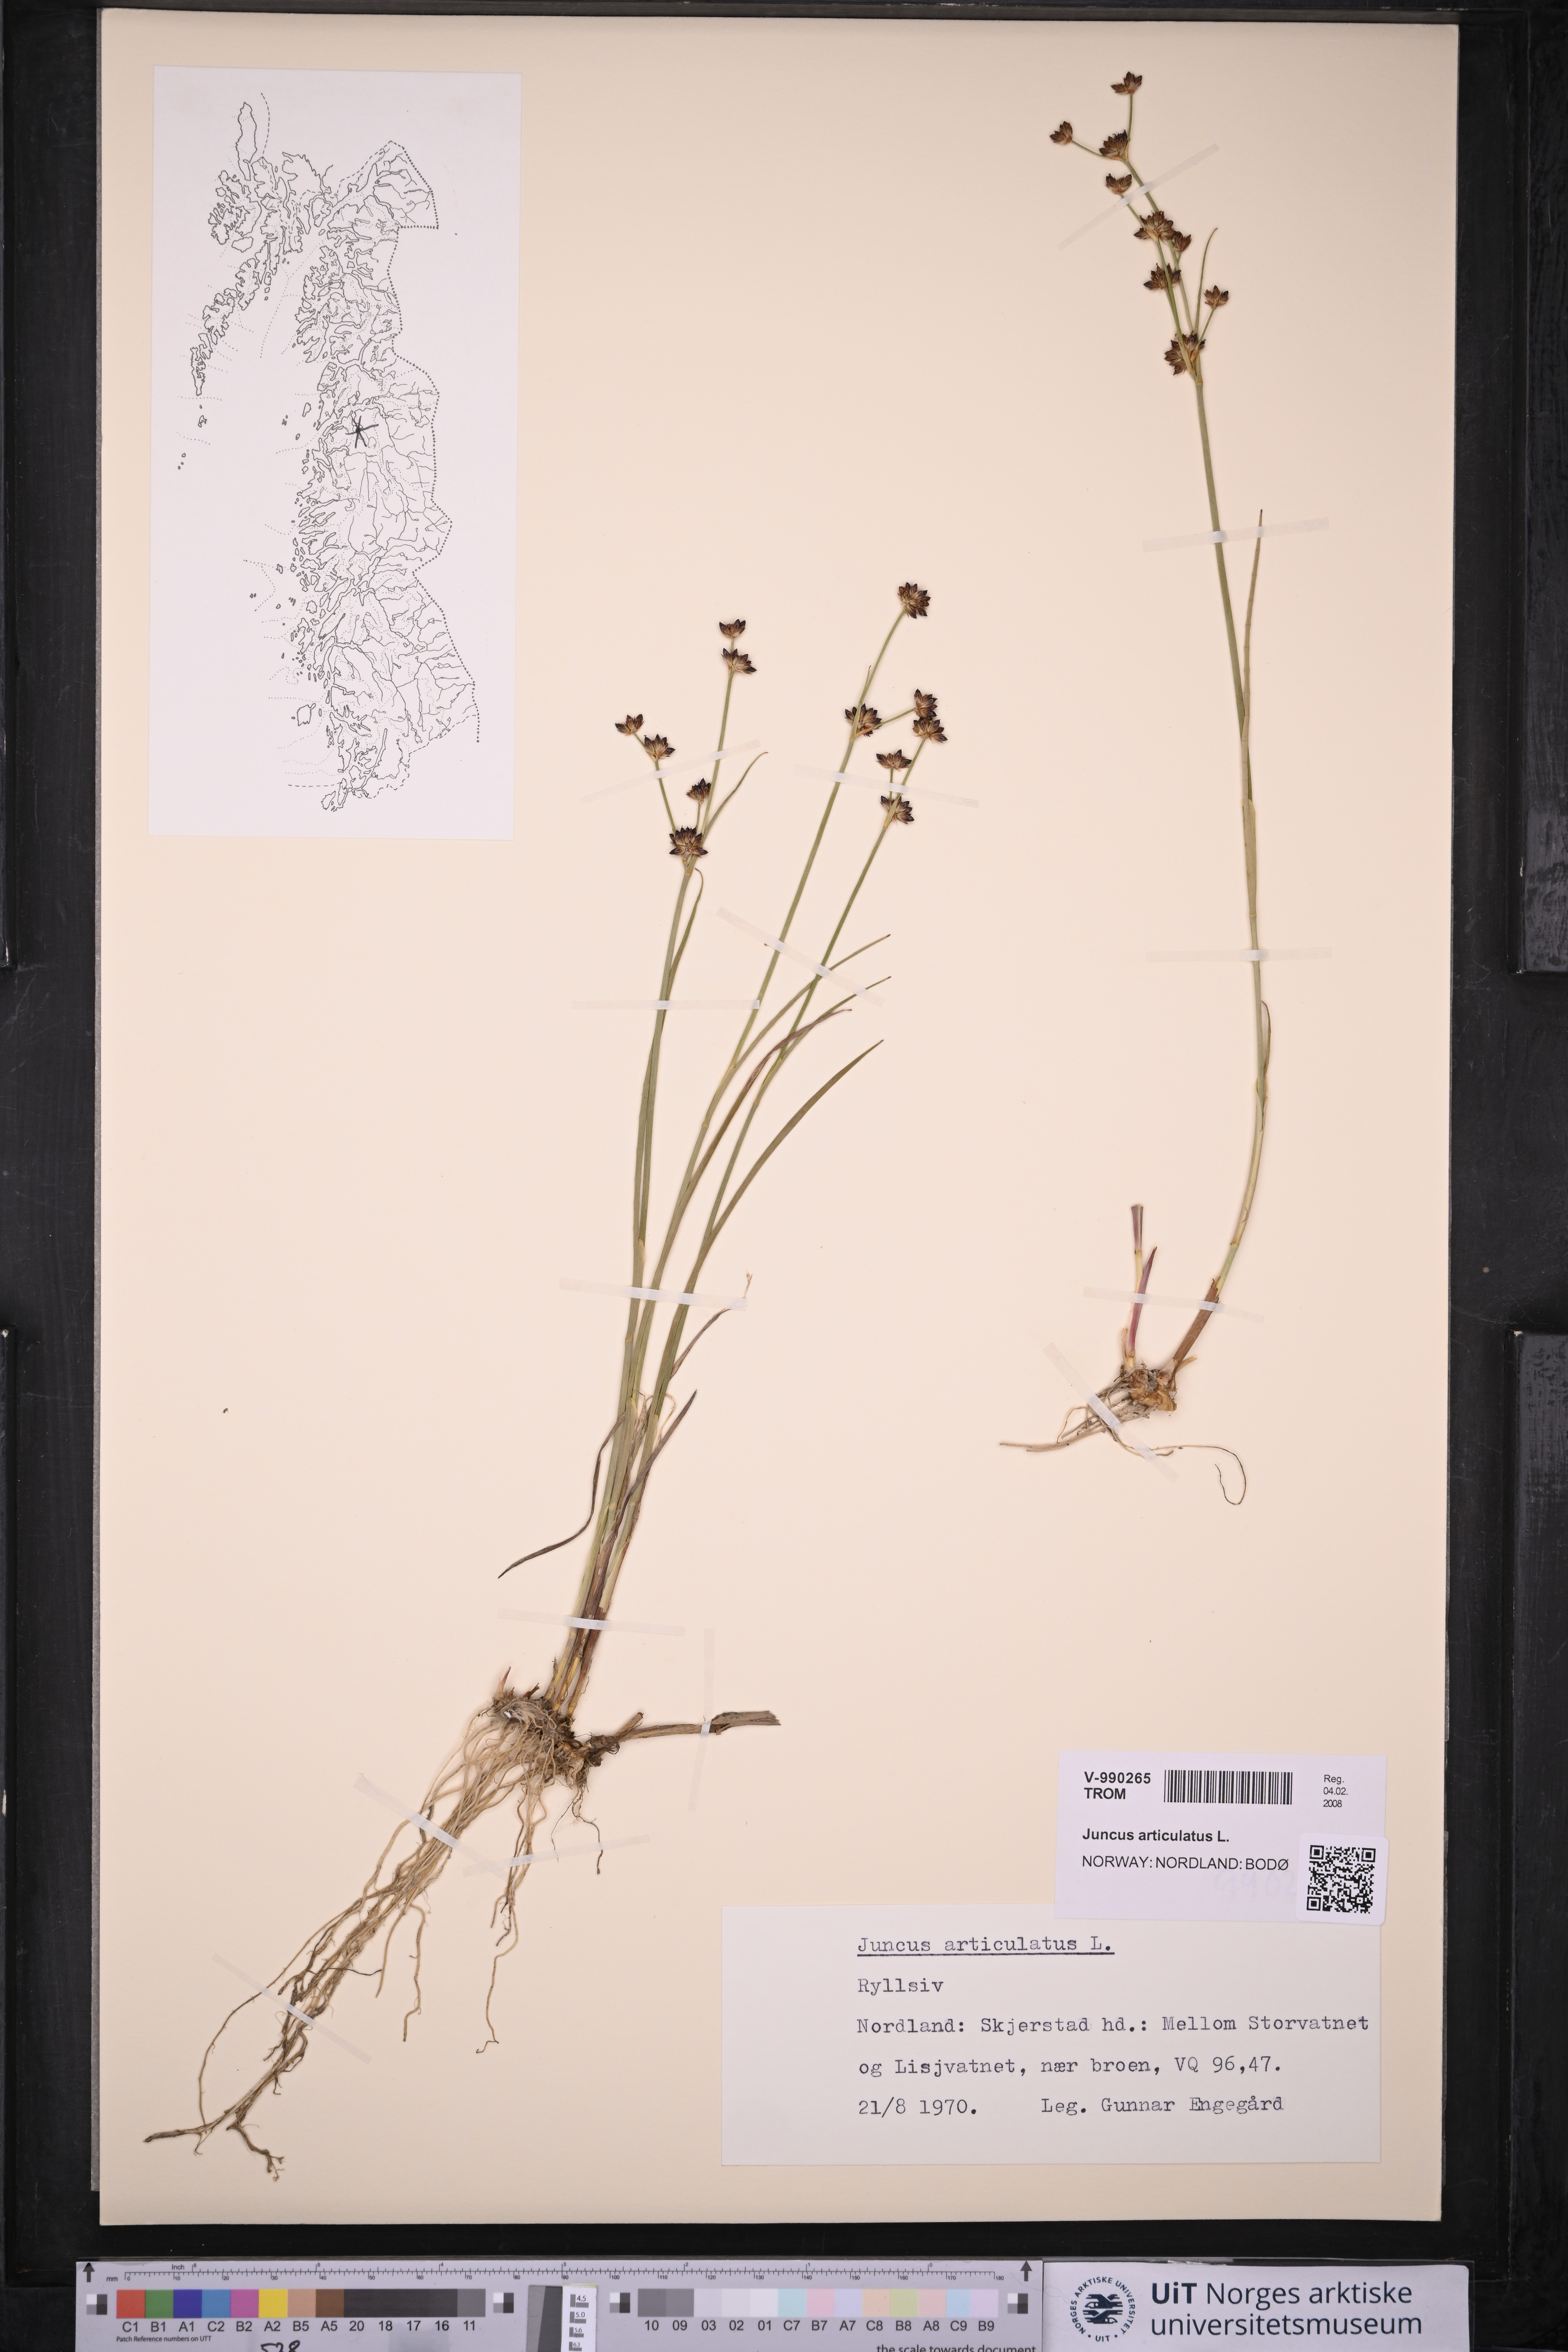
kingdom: Plantae
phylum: Tracheophyta
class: Liliopsida
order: Poales
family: Juncaceae
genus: Juncus
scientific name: Juncus articulatus
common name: Jointed rush
